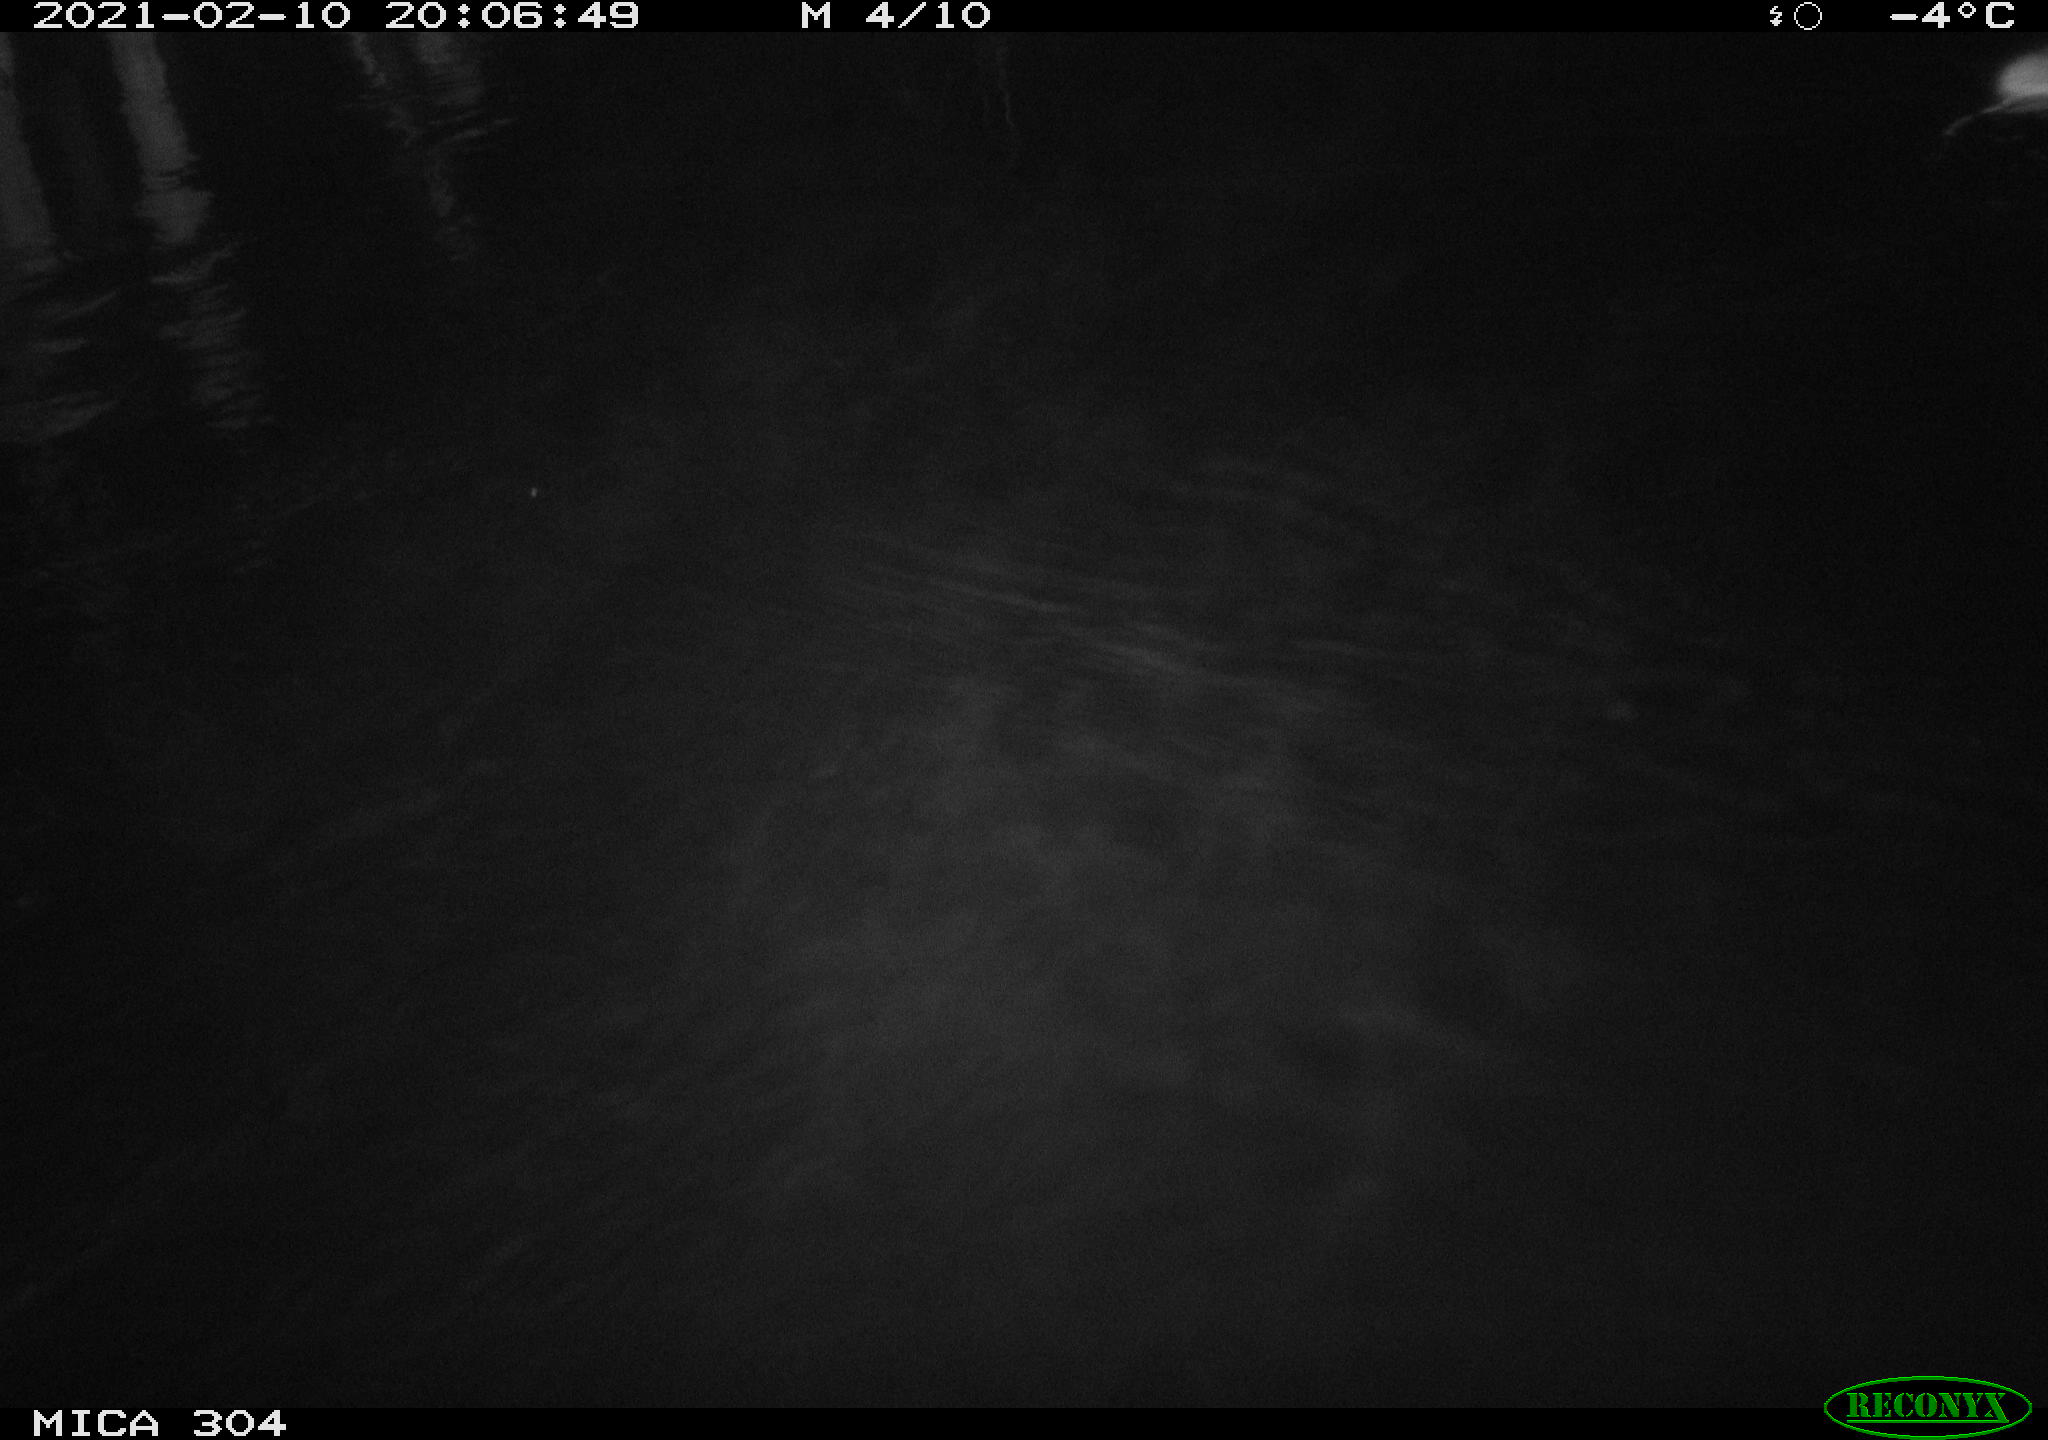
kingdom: Animalia
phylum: Chordata
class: Mammalia
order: Rodentia
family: Muridae
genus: Rattus
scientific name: Rattus norvegicus
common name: Brown rat
